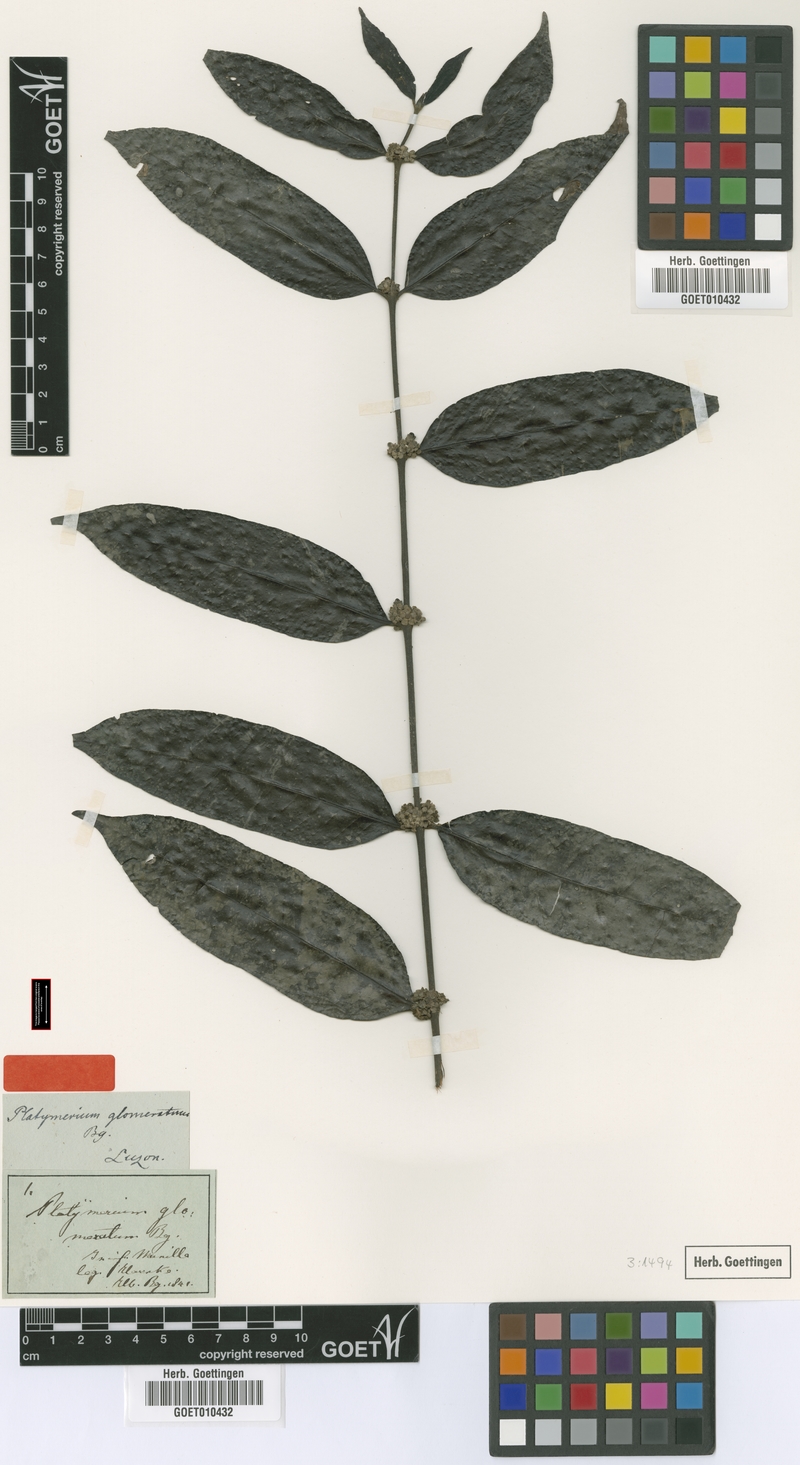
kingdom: Plantae
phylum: Tracheophyta
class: Magnoliopsida
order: Gentianales
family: Rubiaceae
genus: Villaria
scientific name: Villaria glomerata
